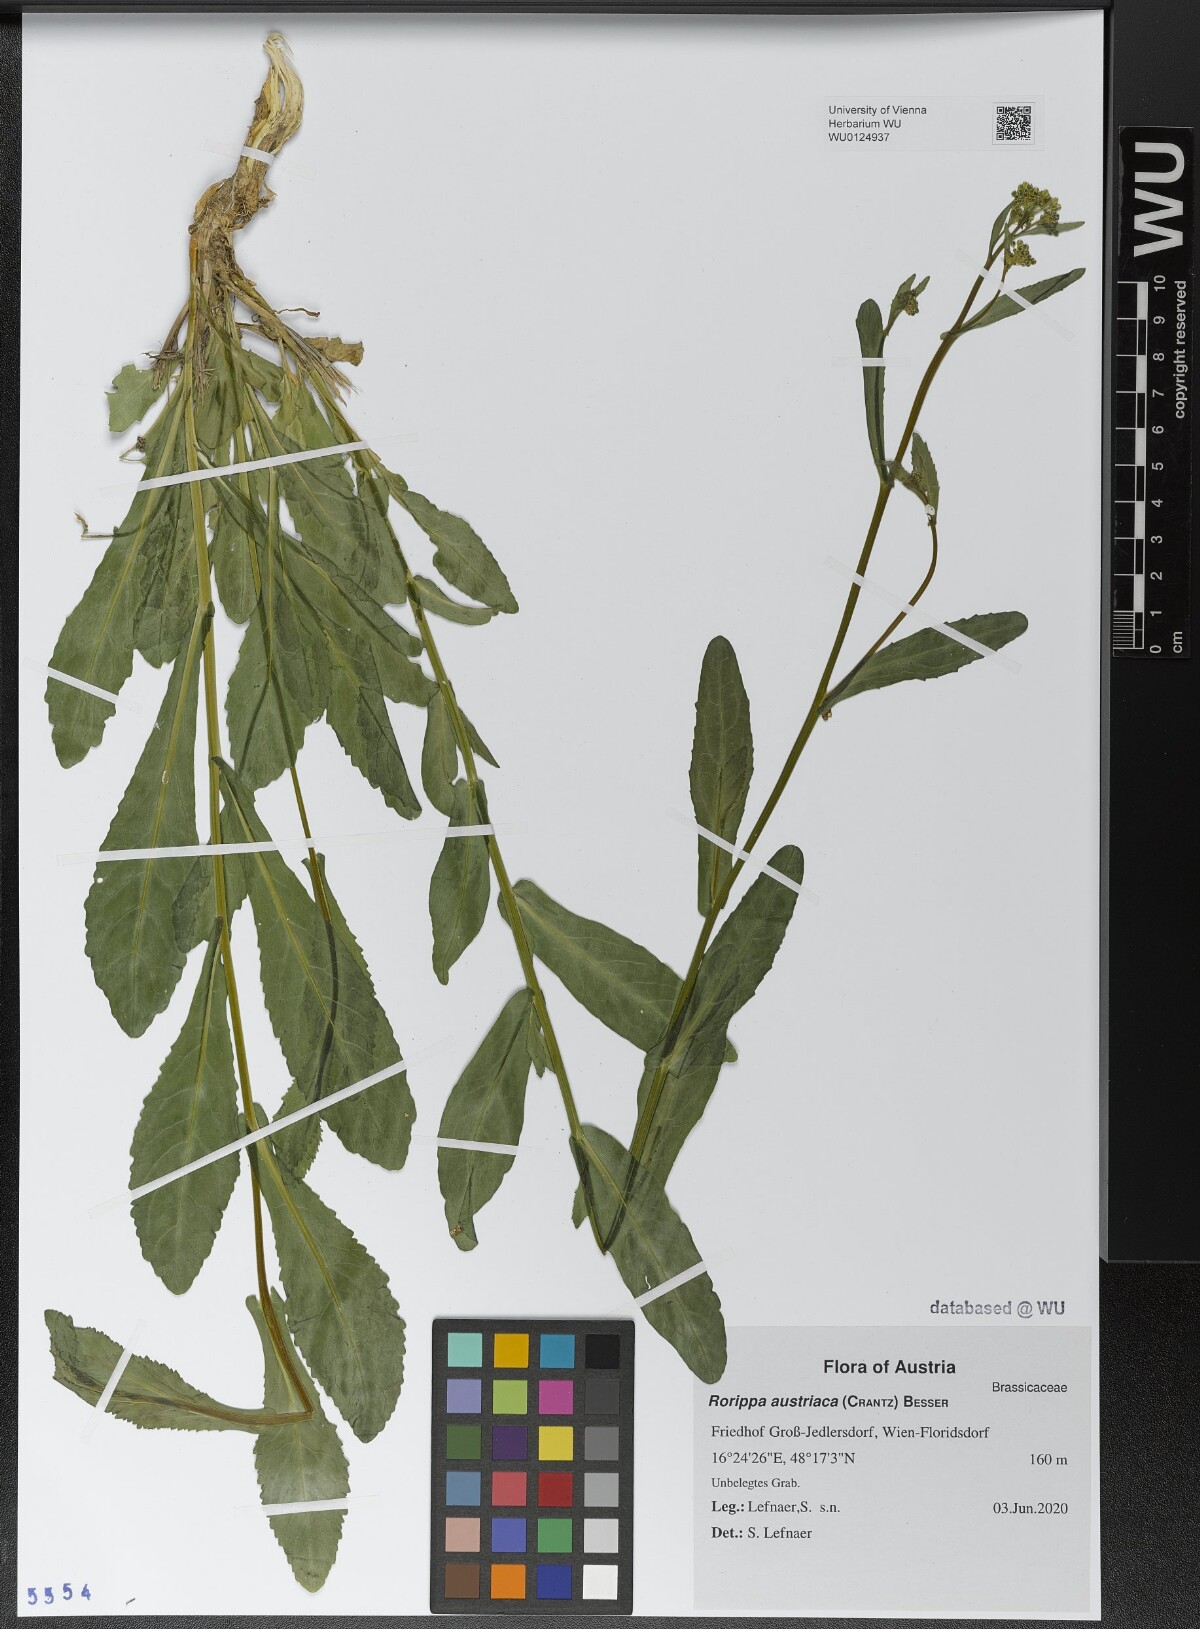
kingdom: Plantae
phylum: Tracheophyta
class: Magnoliopsida
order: Brassicales
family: Brassicaceae
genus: Rorippa
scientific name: Rorippa austriaca
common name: Austrian yellow-cress
